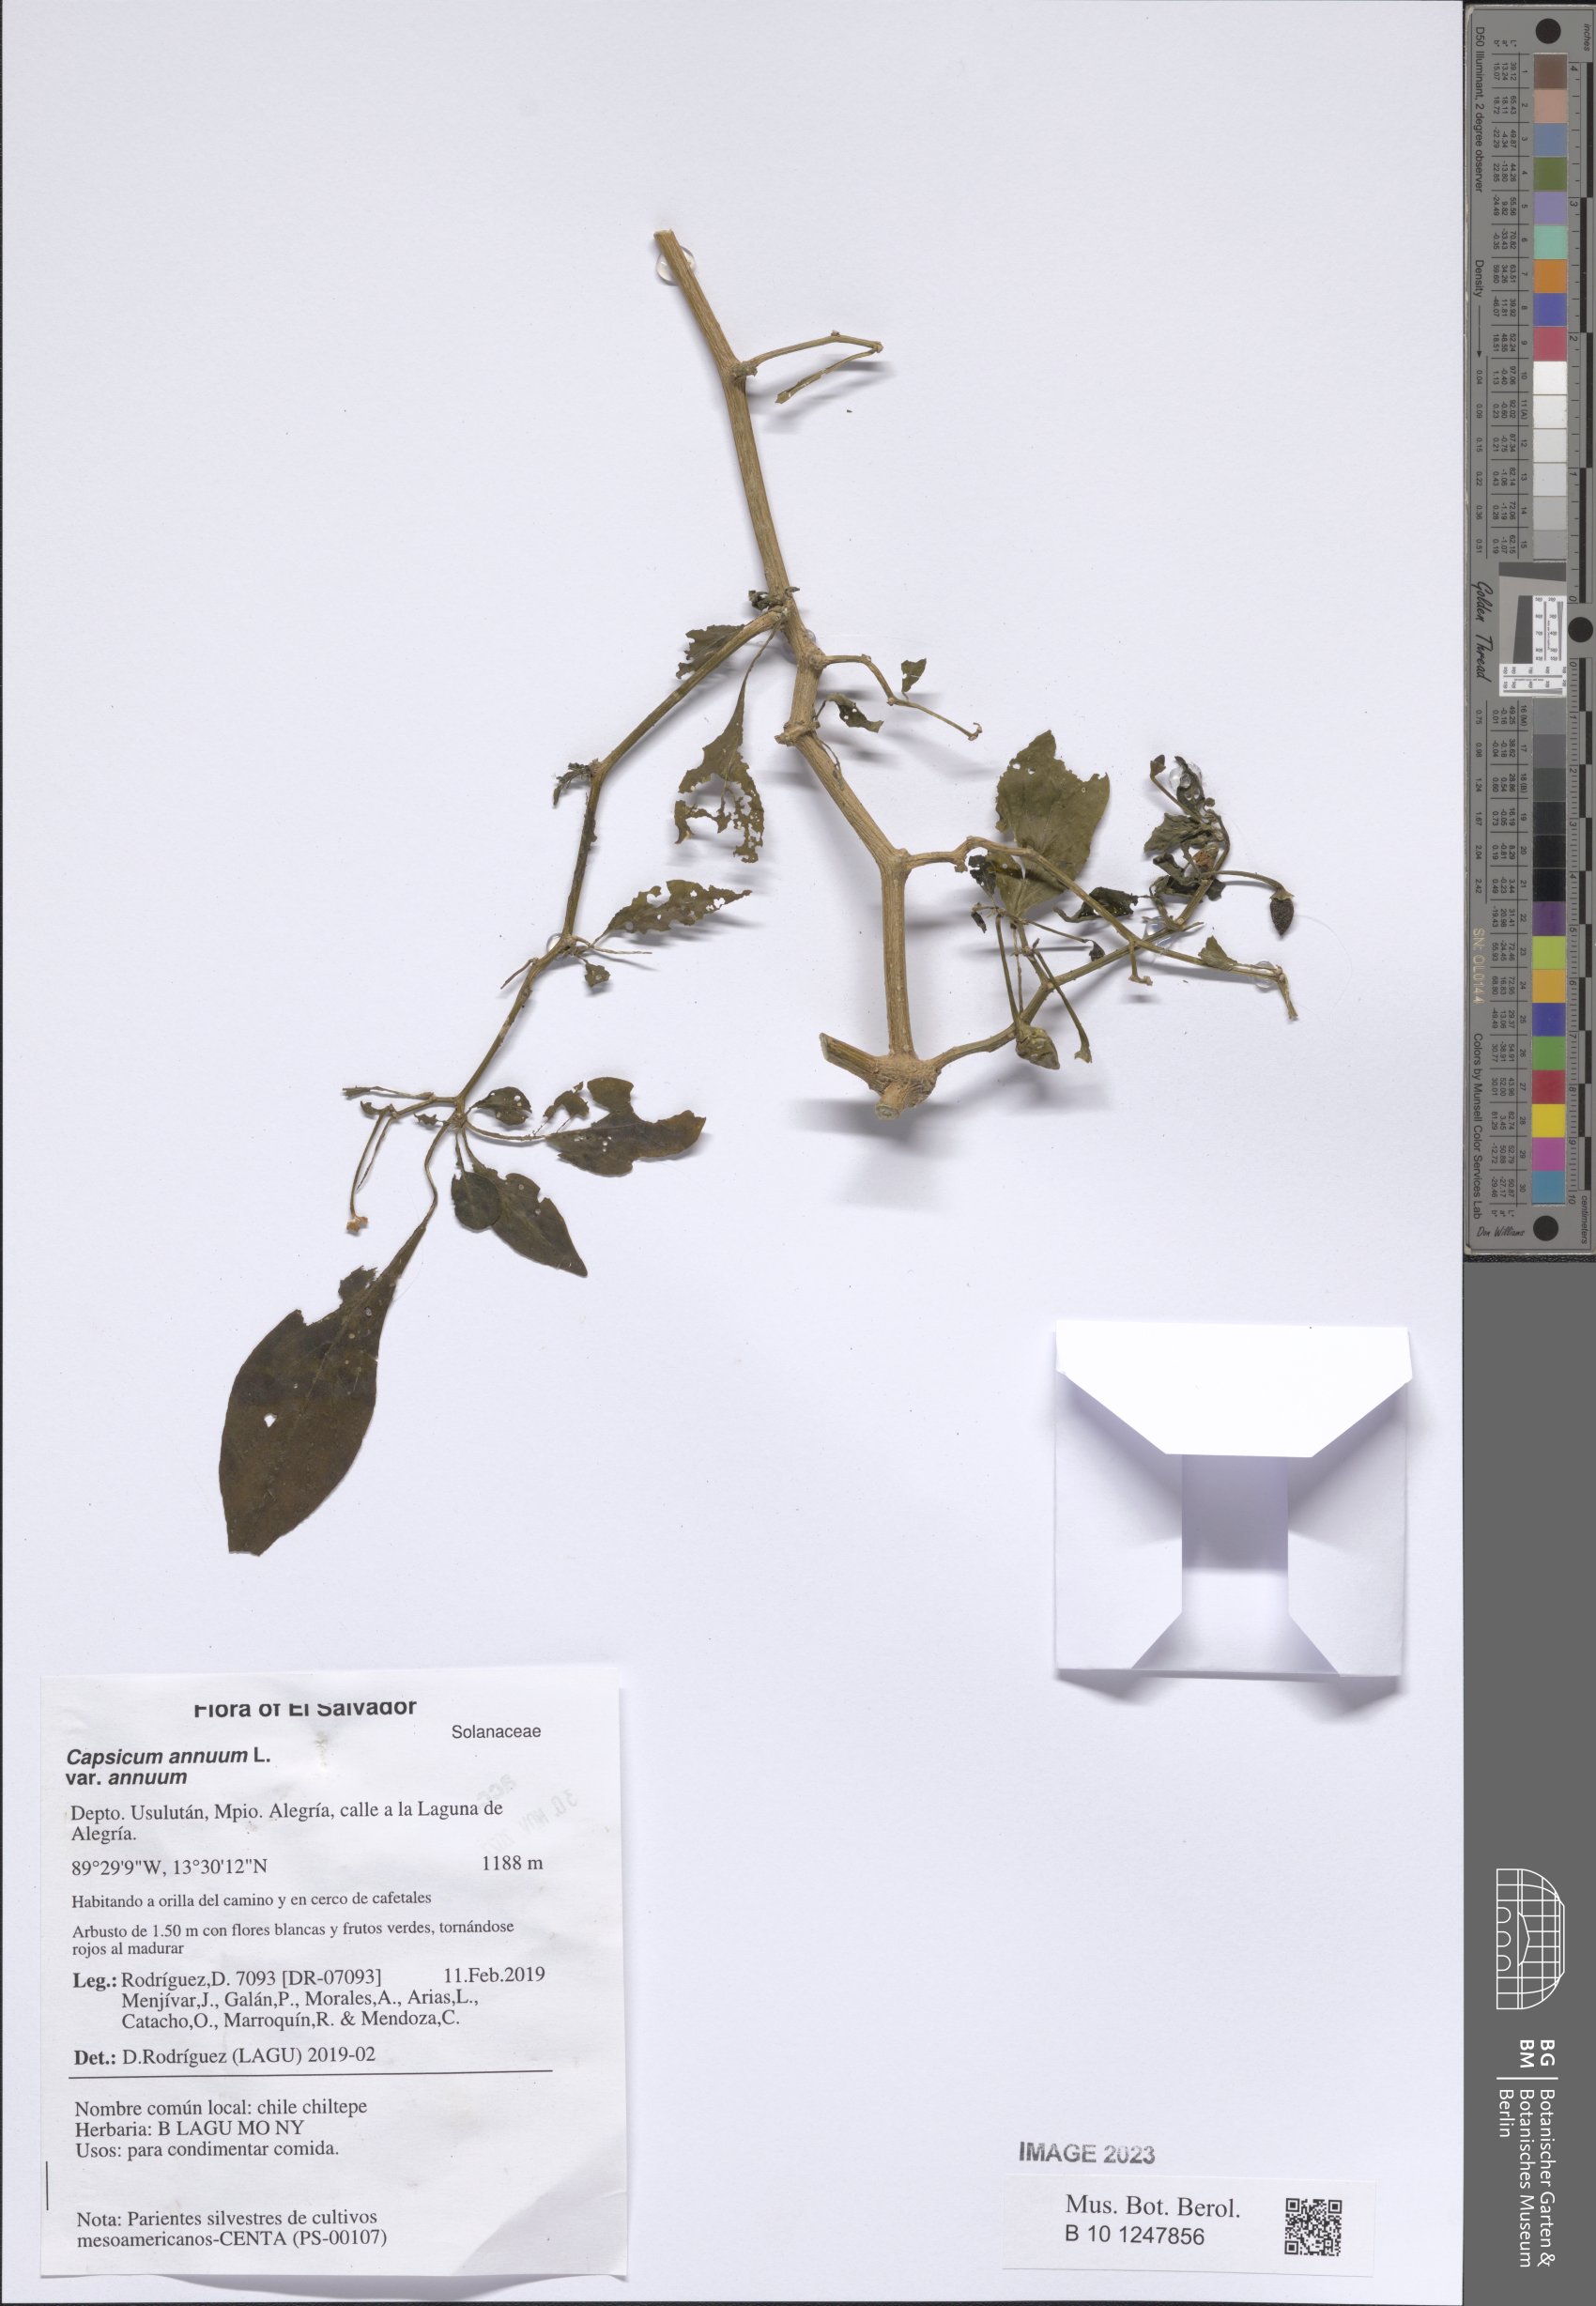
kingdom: Plantae
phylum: Tracheophyta
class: Magnoliopsida
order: Solanales
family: Solanaceae
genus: Capsicum
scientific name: Capsicum annuum
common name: Sweet pepper
